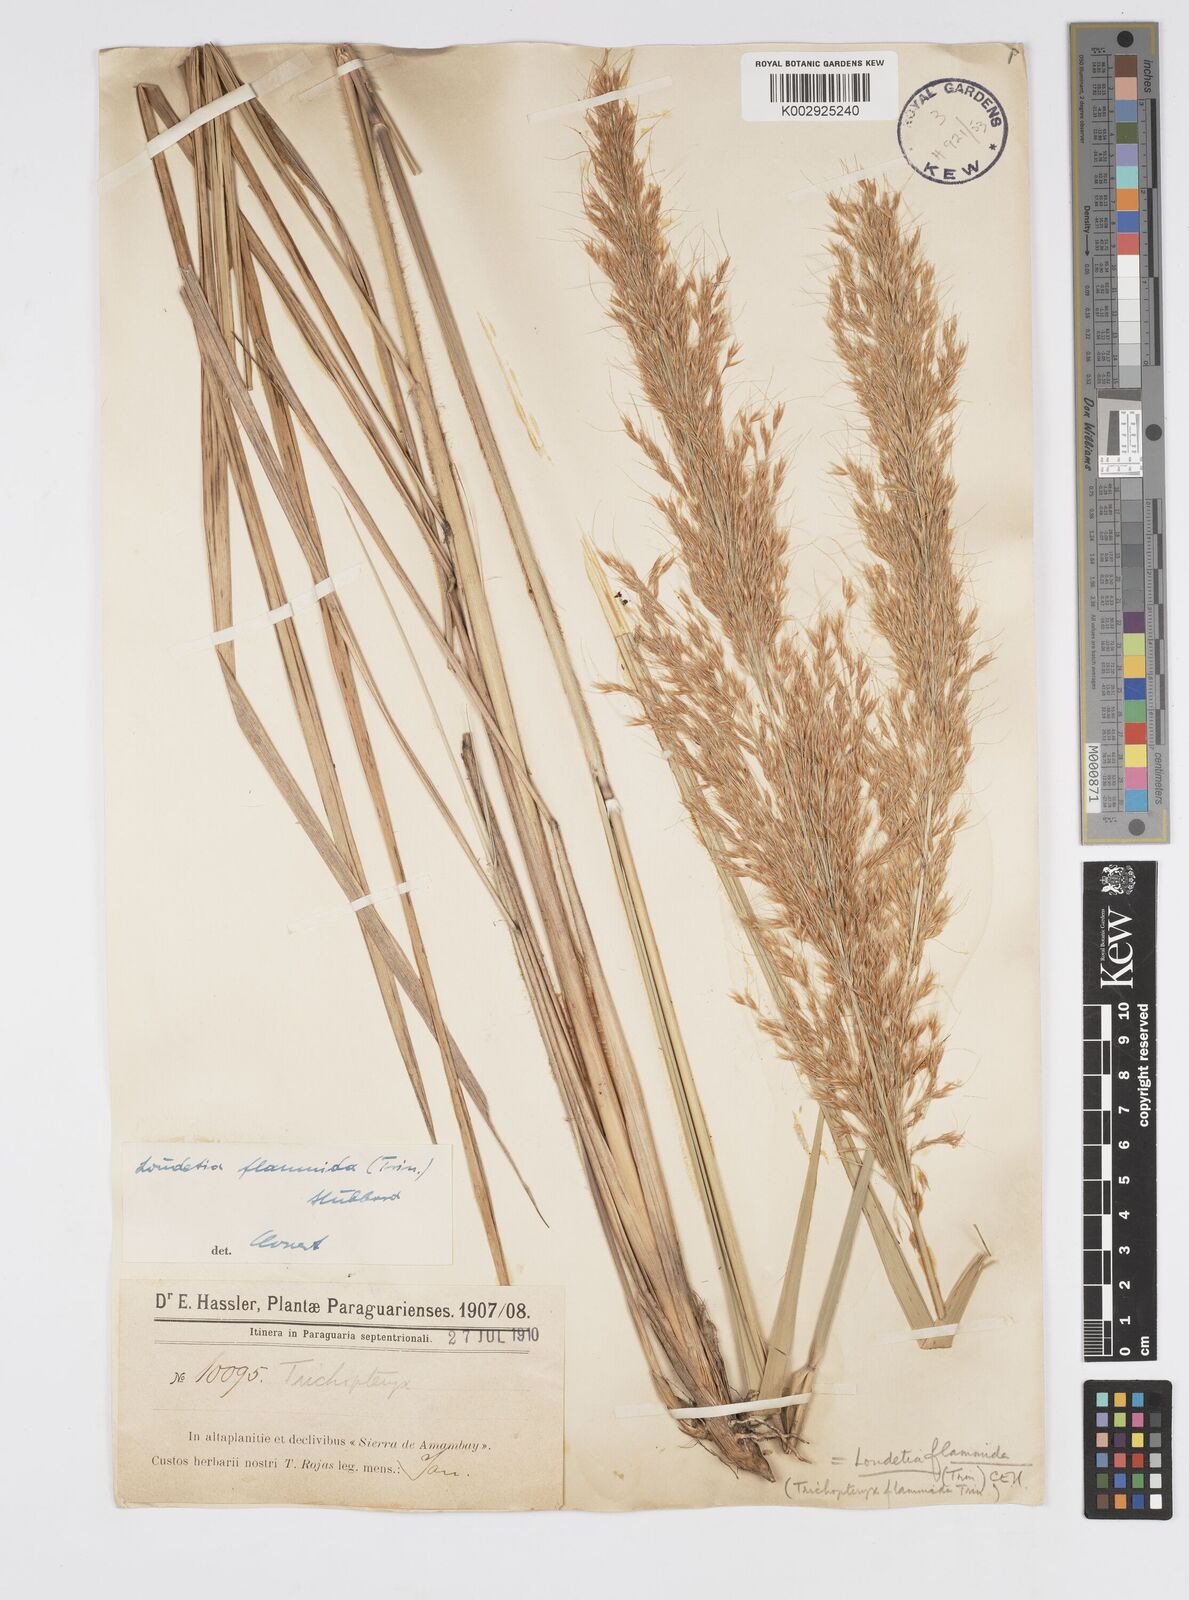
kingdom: Plantae
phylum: Tracheophyta
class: Liliopsida
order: Poales
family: Poaceae
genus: Loudetia
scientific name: Loudetia flammida
